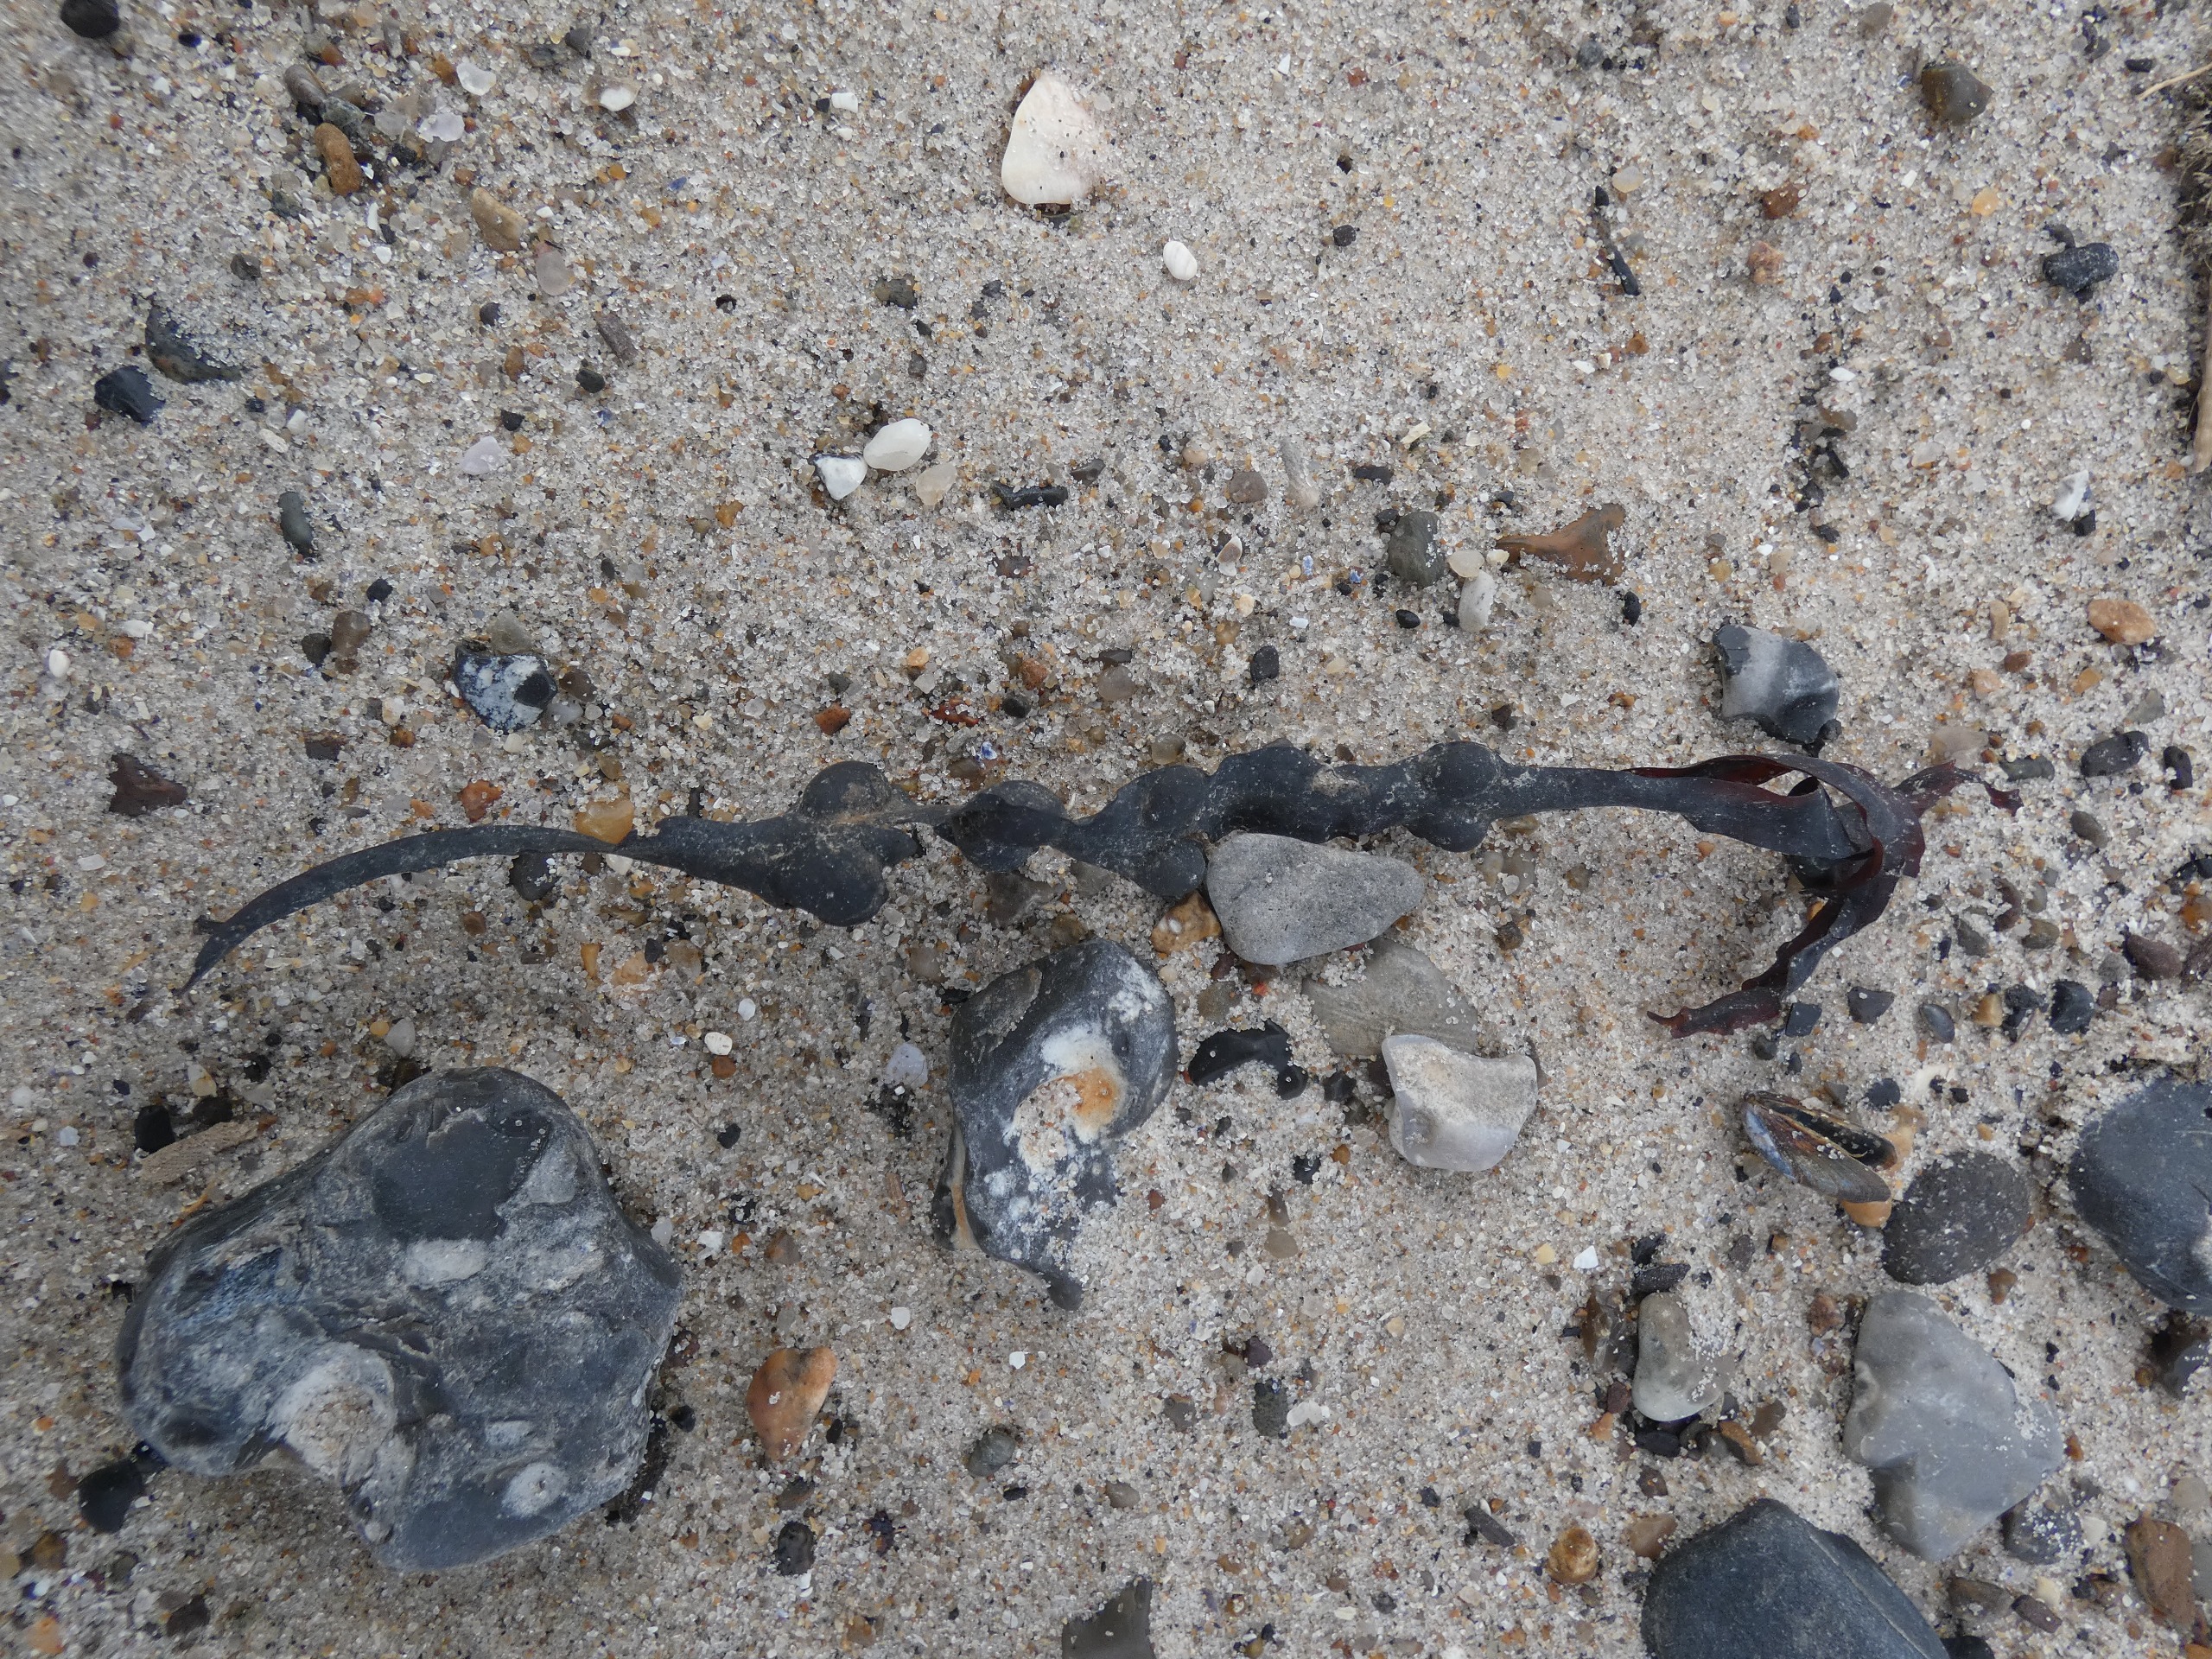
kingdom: Chromista
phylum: Ochrophyta
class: Phaeophyceae
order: Fucales
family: Fucaceae
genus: Fucus
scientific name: Fucus vesiculosus
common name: Blæretang
